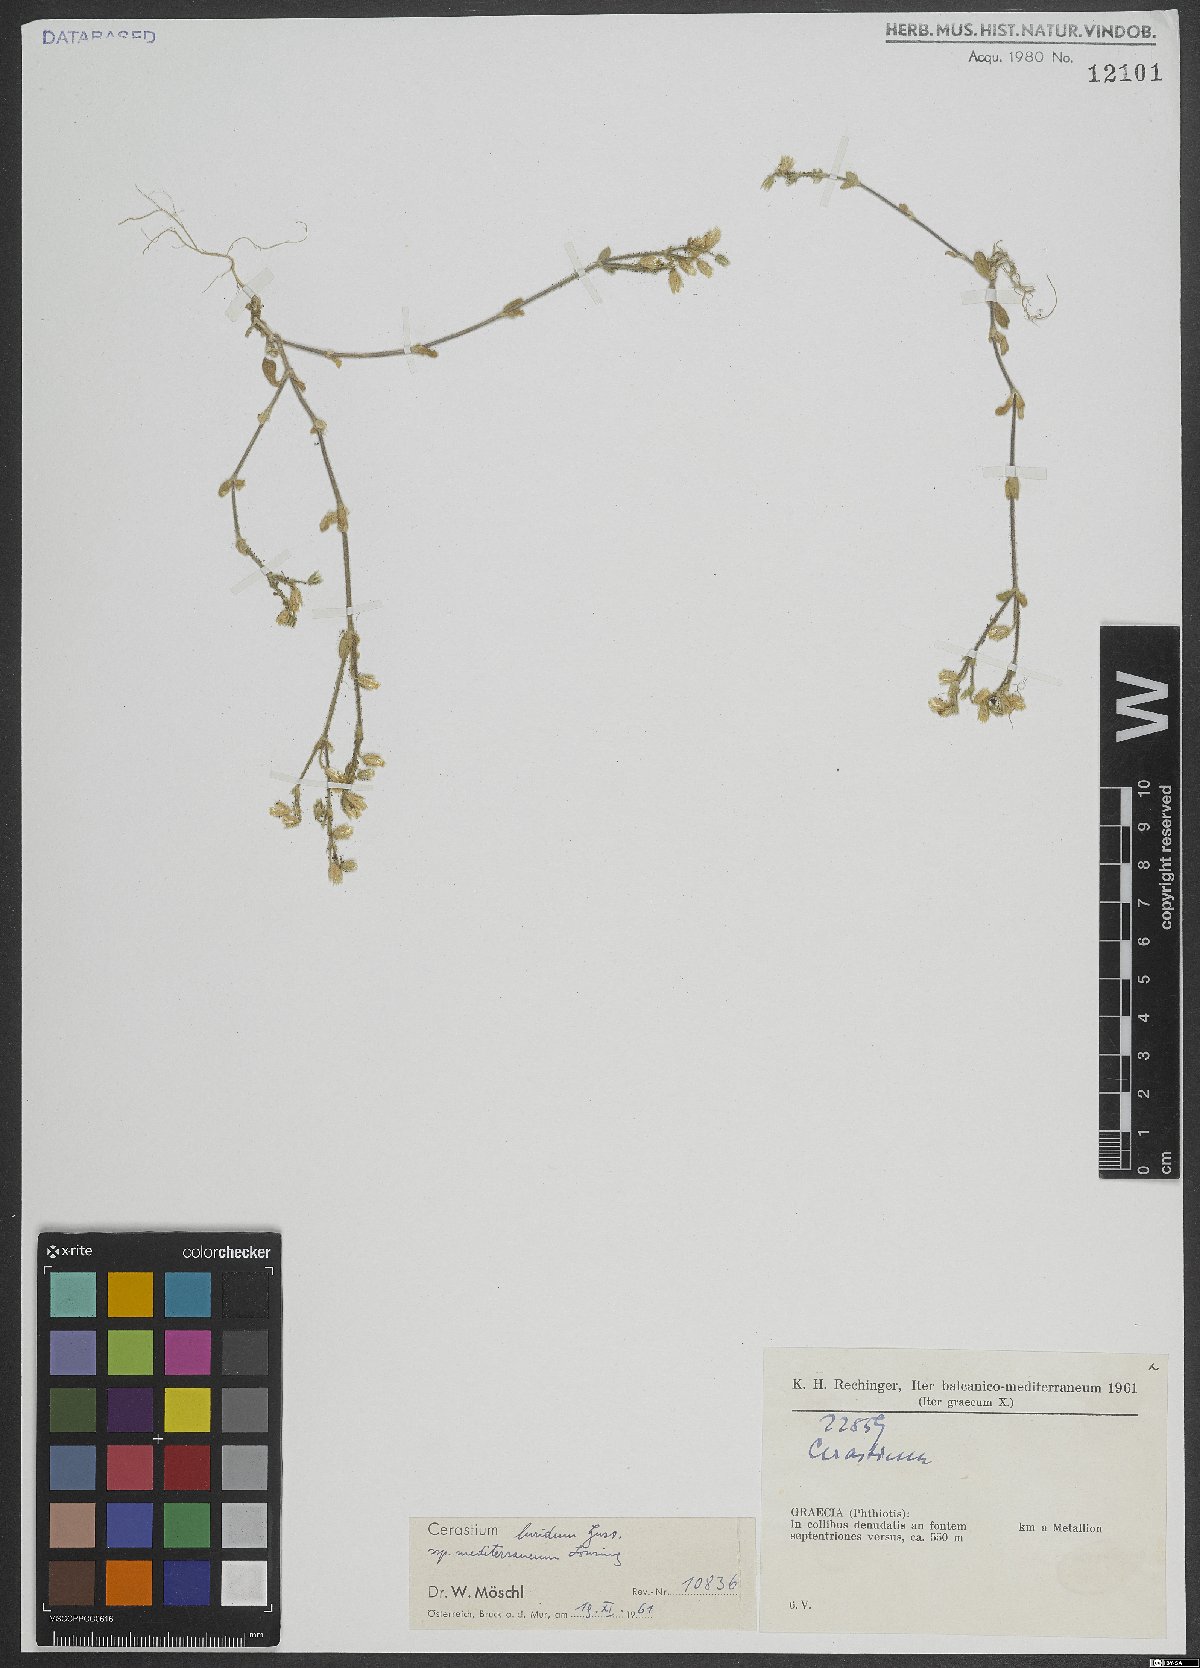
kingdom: Plantae
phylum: Tracheophyta
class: Magnoliopsida
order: Caryophyllales
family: Caryophyllaceae
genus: Cerastium
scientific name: Cerastium brachypetalum
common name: Grey mouse-ear
